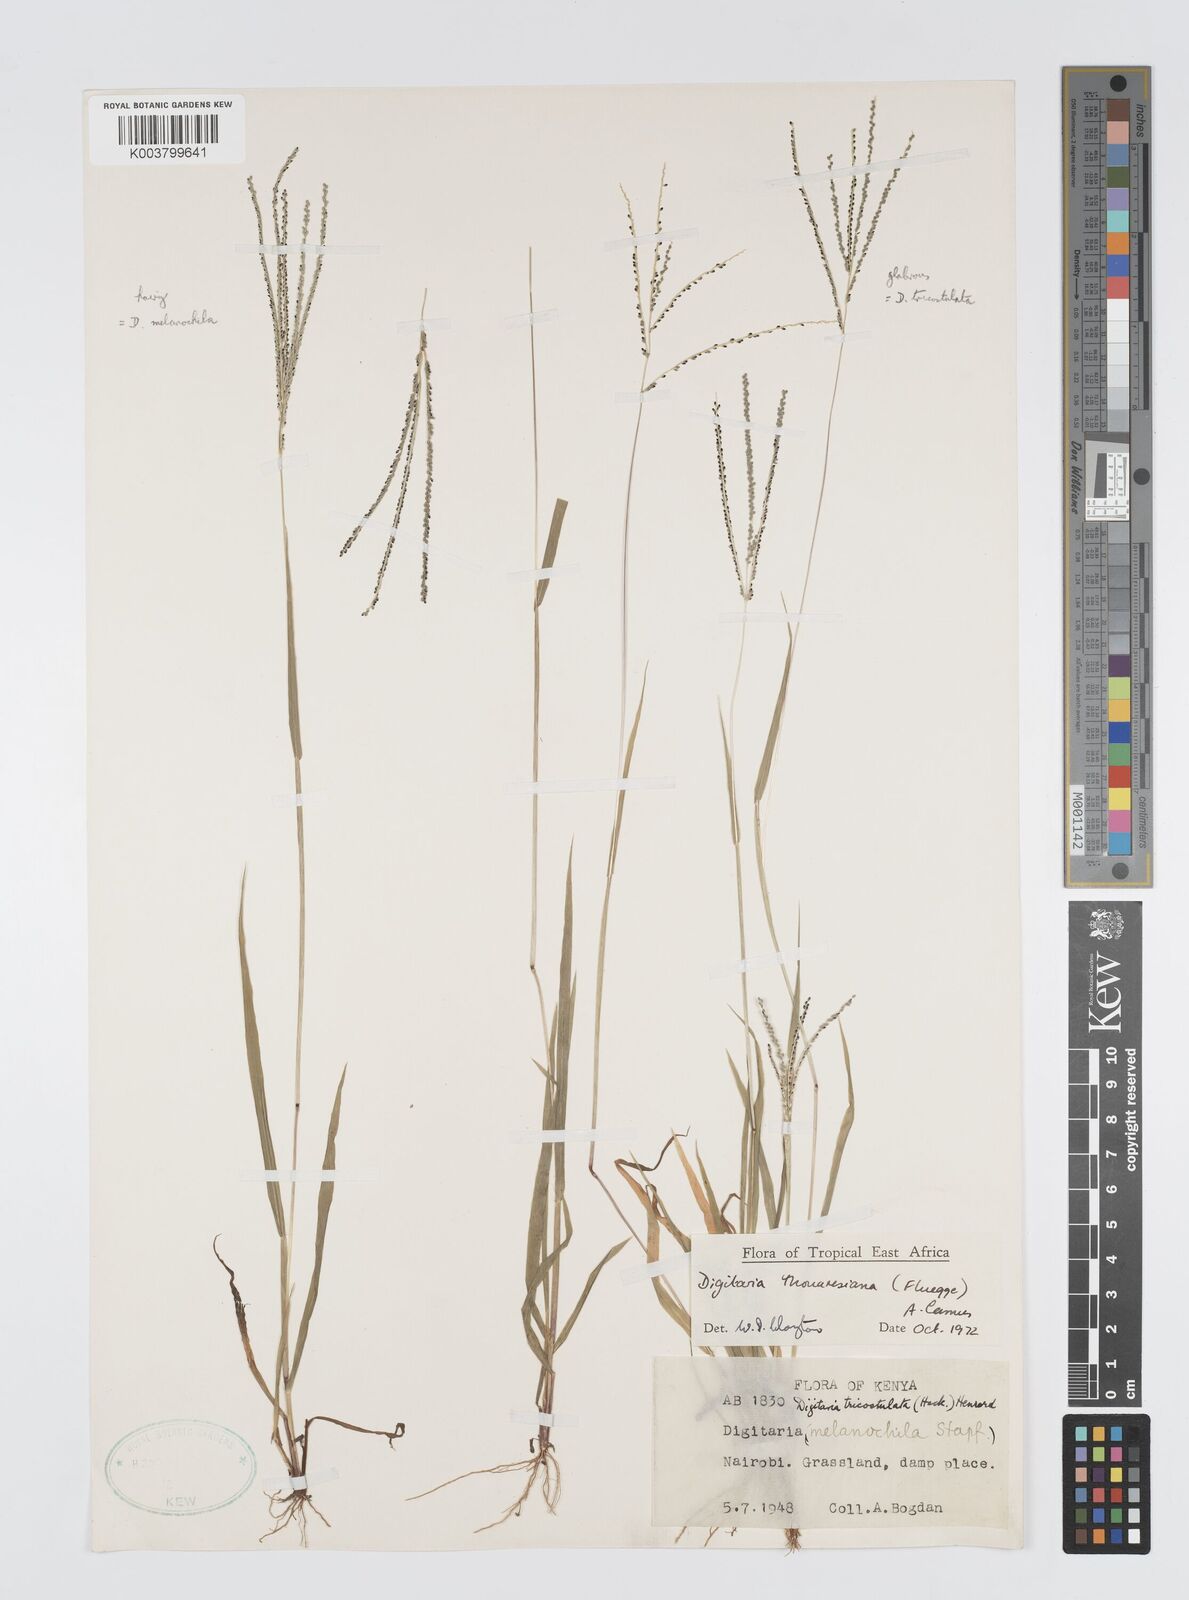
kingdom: Plantae
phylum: Tracheophyta
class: Liliopsida
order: Poales
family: Poaceae
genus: Digitaria
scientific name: Digitaria thouarsiana
